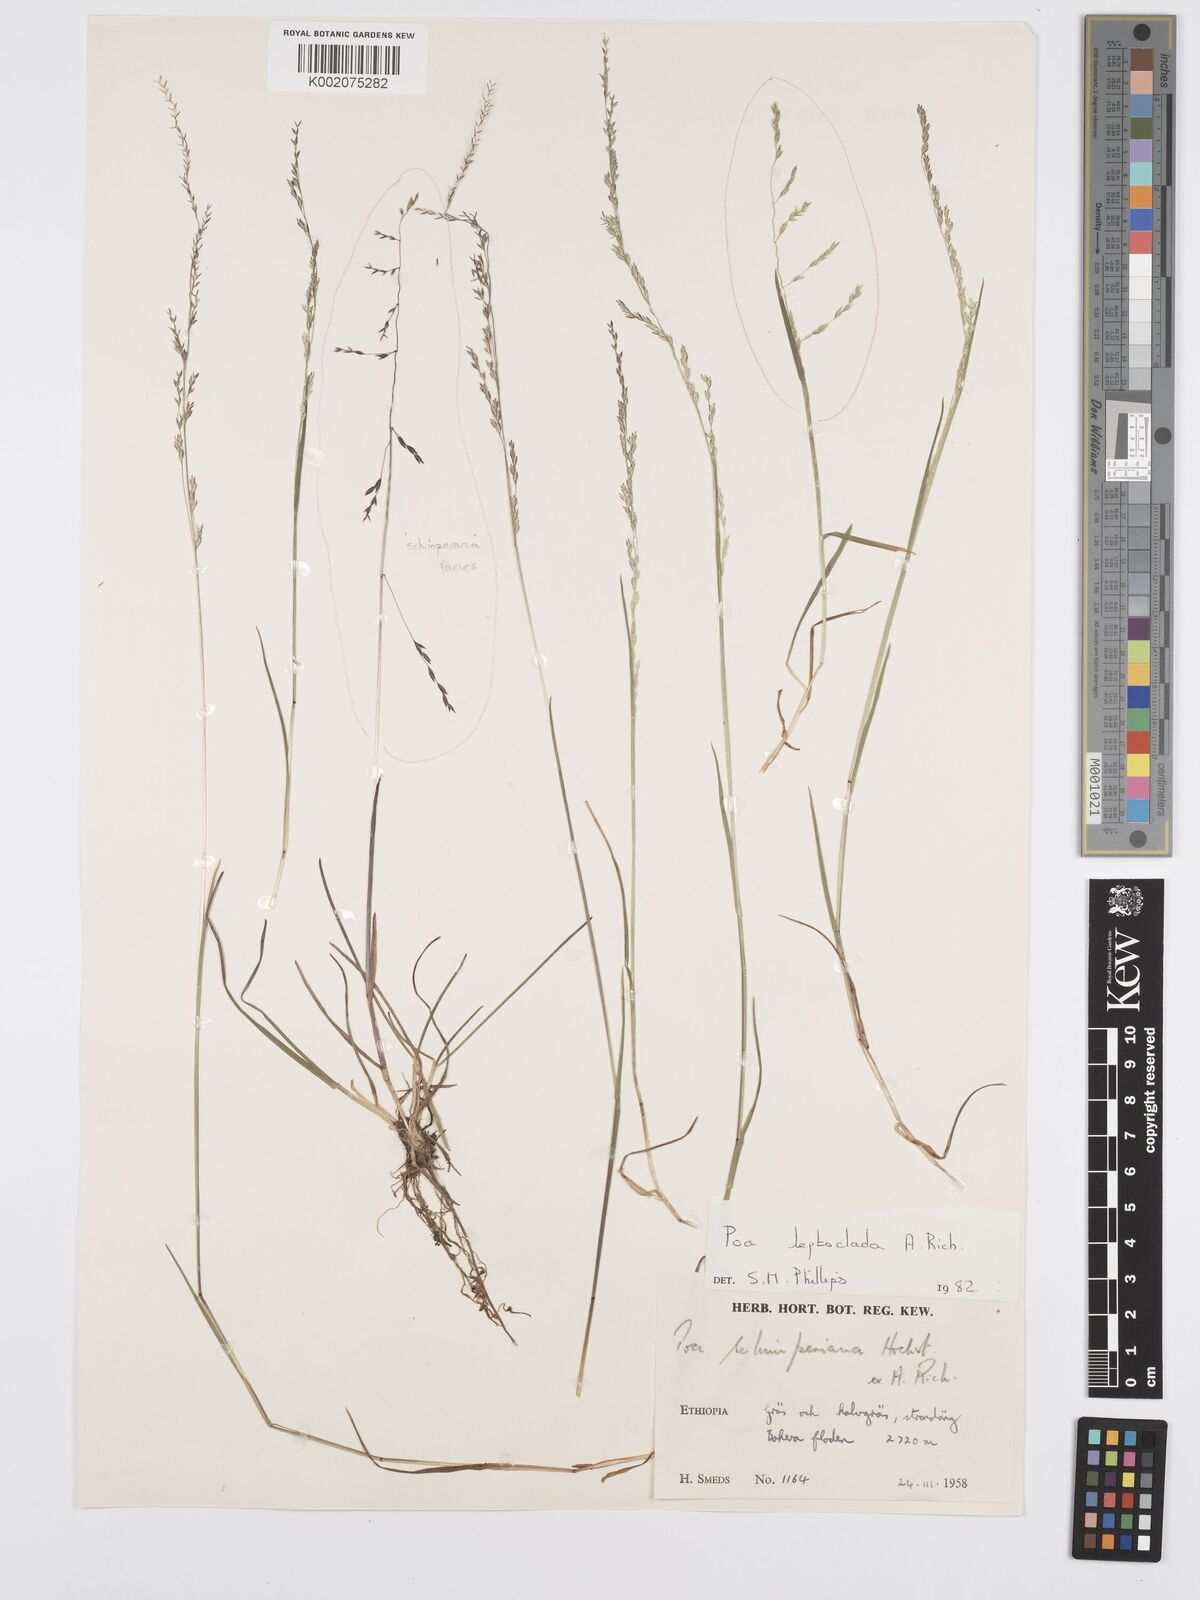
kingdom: Plantae
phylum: Tracheophyta
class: Liliopsida
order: Poales
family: Poaceae
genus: Poa
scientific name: Poa leptoclada
